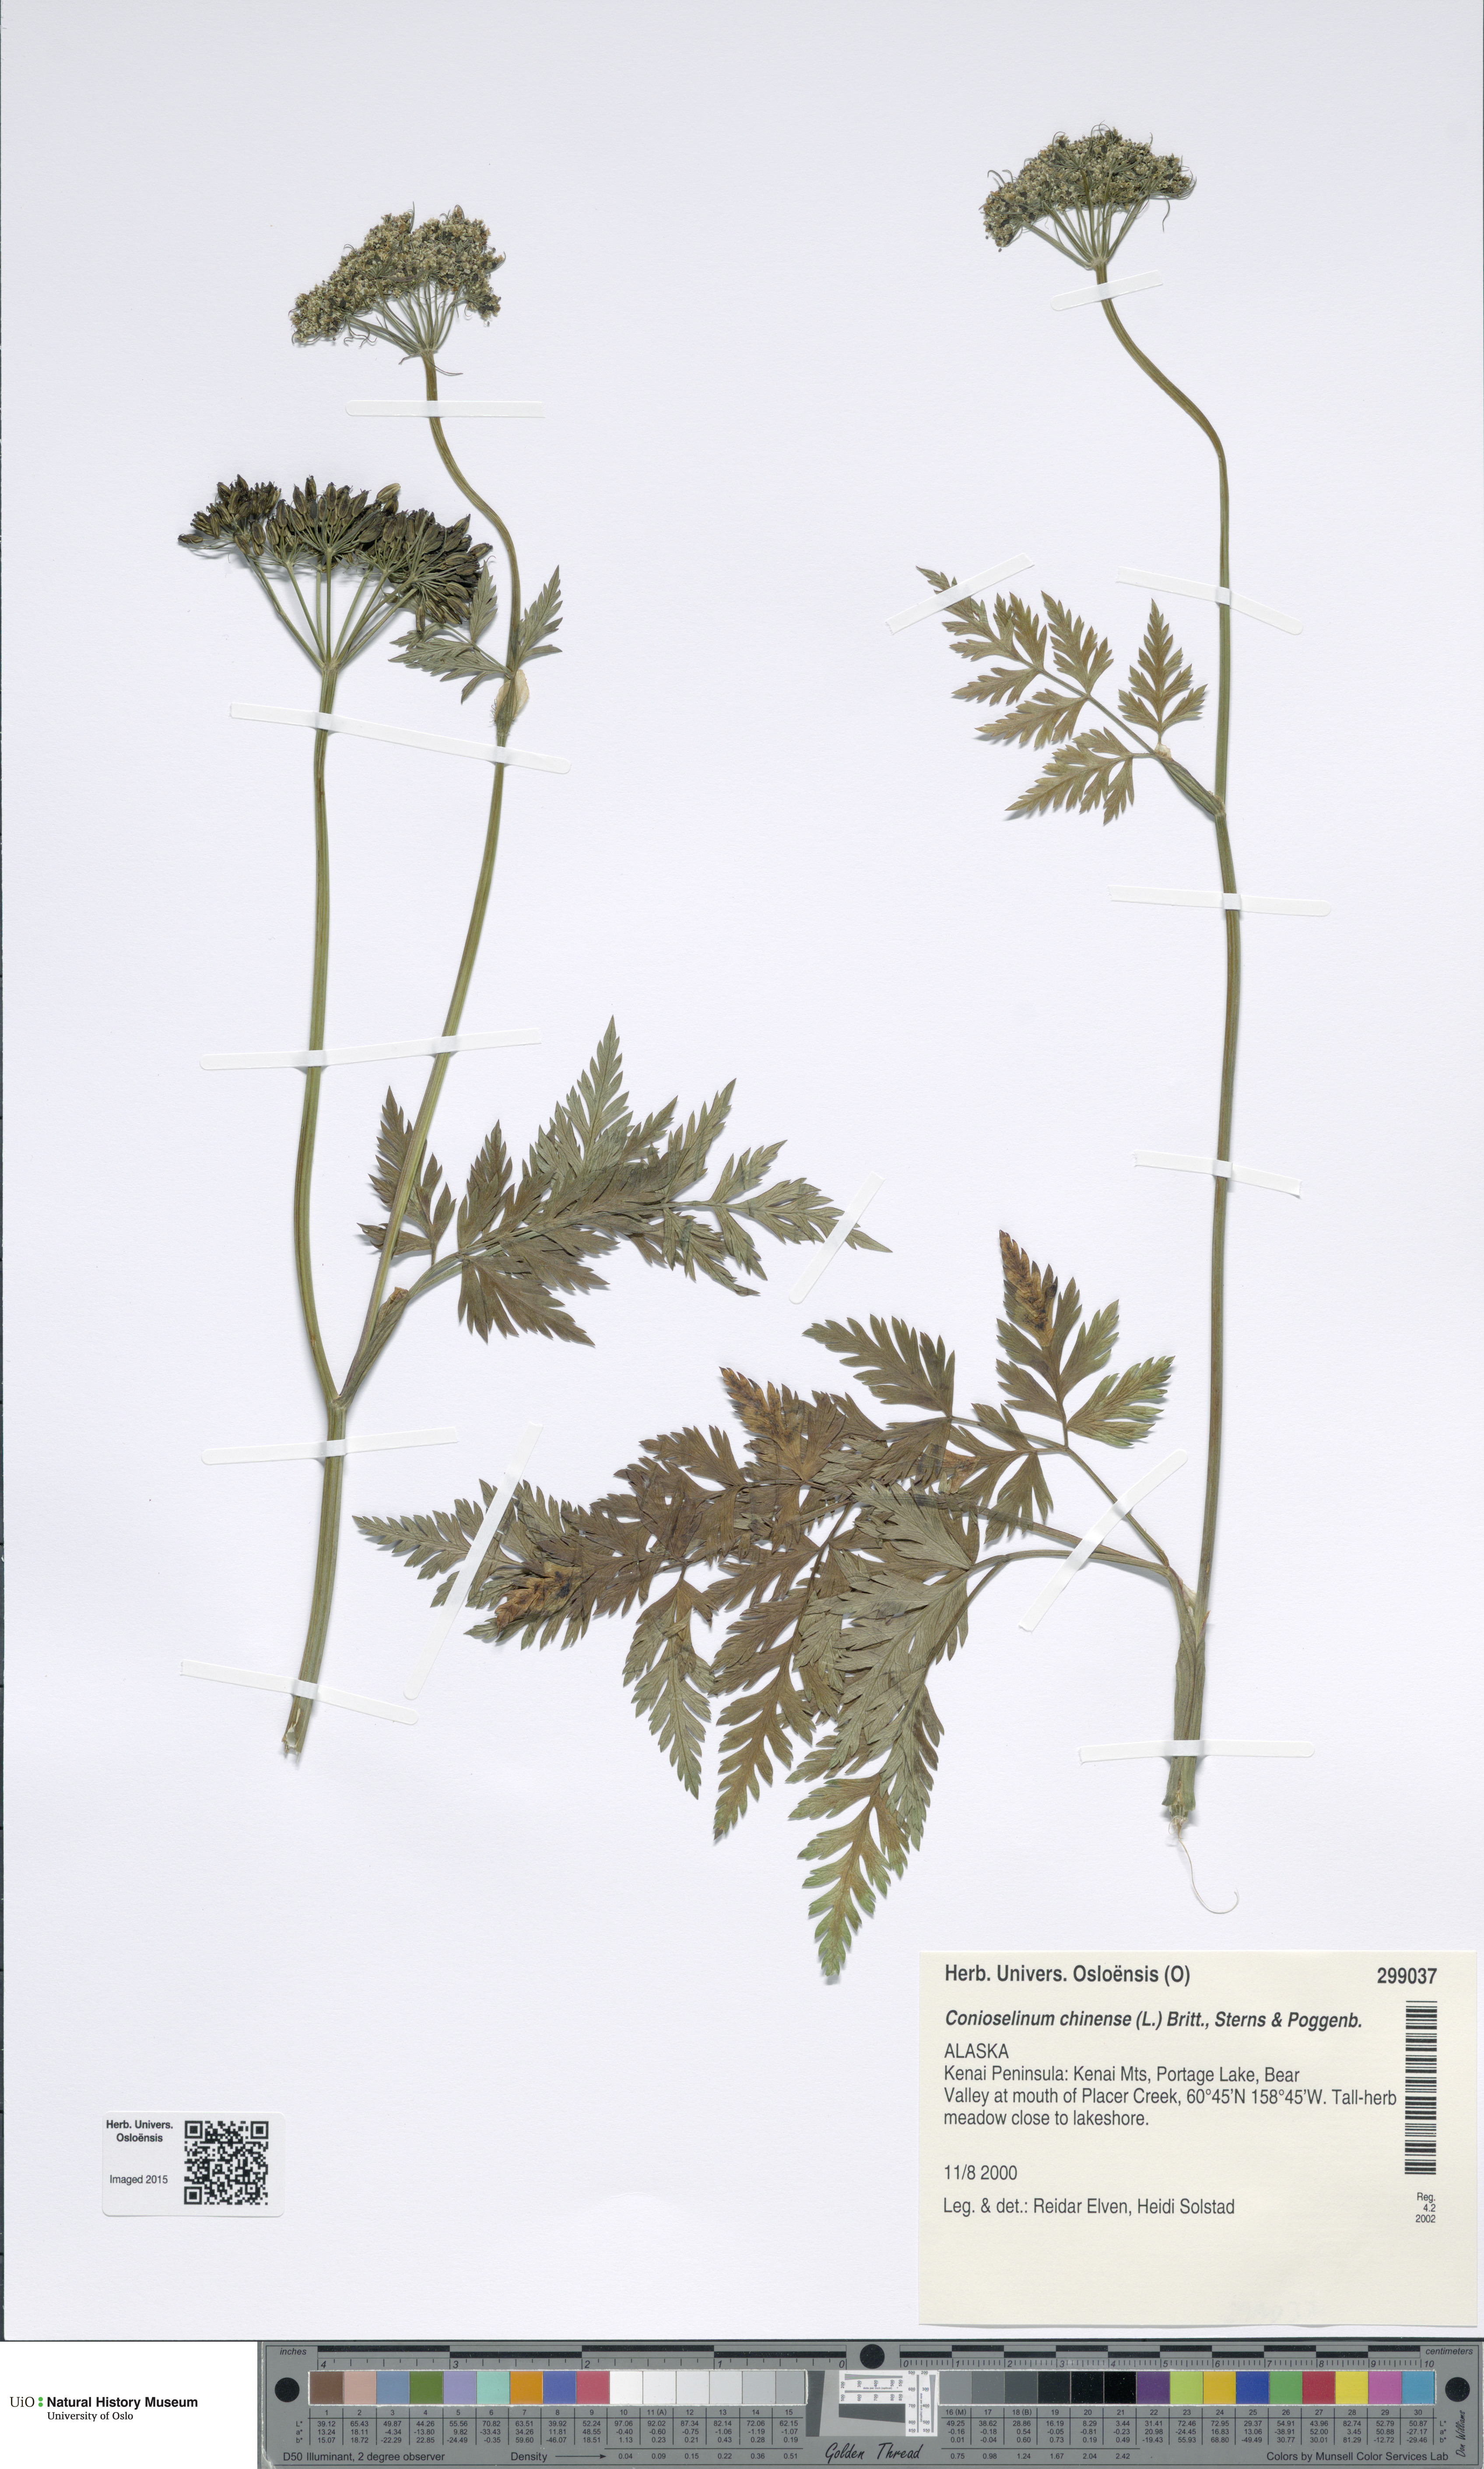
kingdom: Plantae
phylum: Tracheophyta
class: Magnoliopsida
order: Apiales
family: Apiaceae
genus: Kreidion
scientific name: Kreidion chinensis
